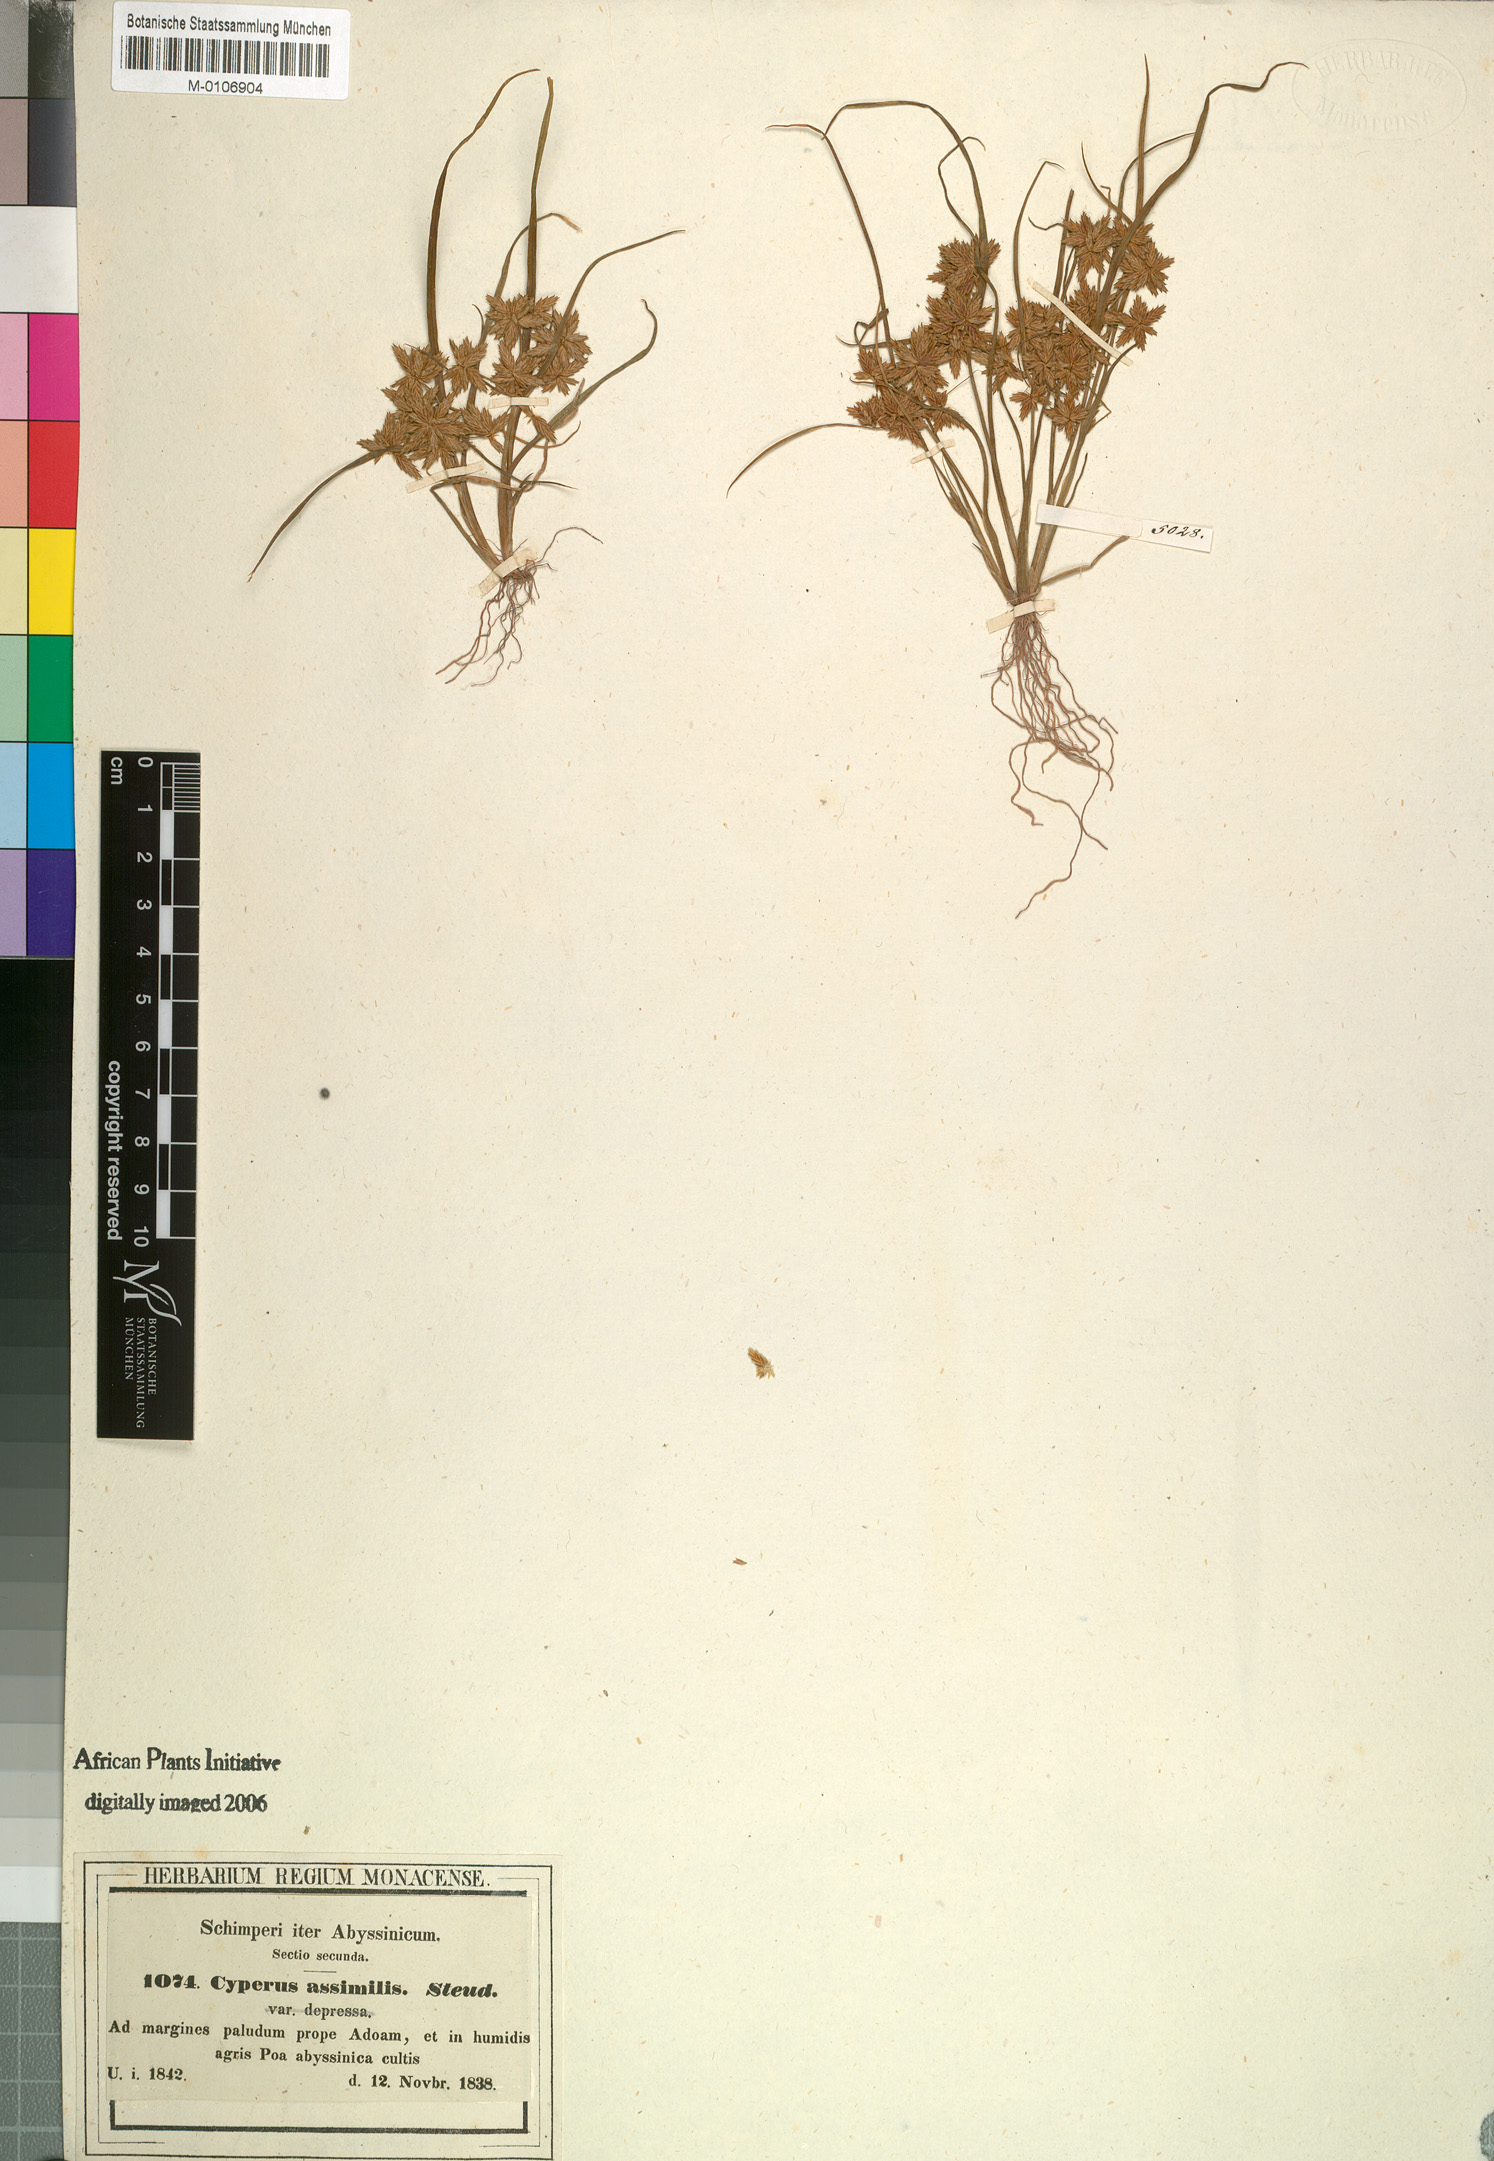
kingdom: Plantae
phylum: Tracheophyta
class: Liliopsida
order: Poales
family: Cyperaceae
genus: Cyperus
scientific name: Cyperus assimilis
